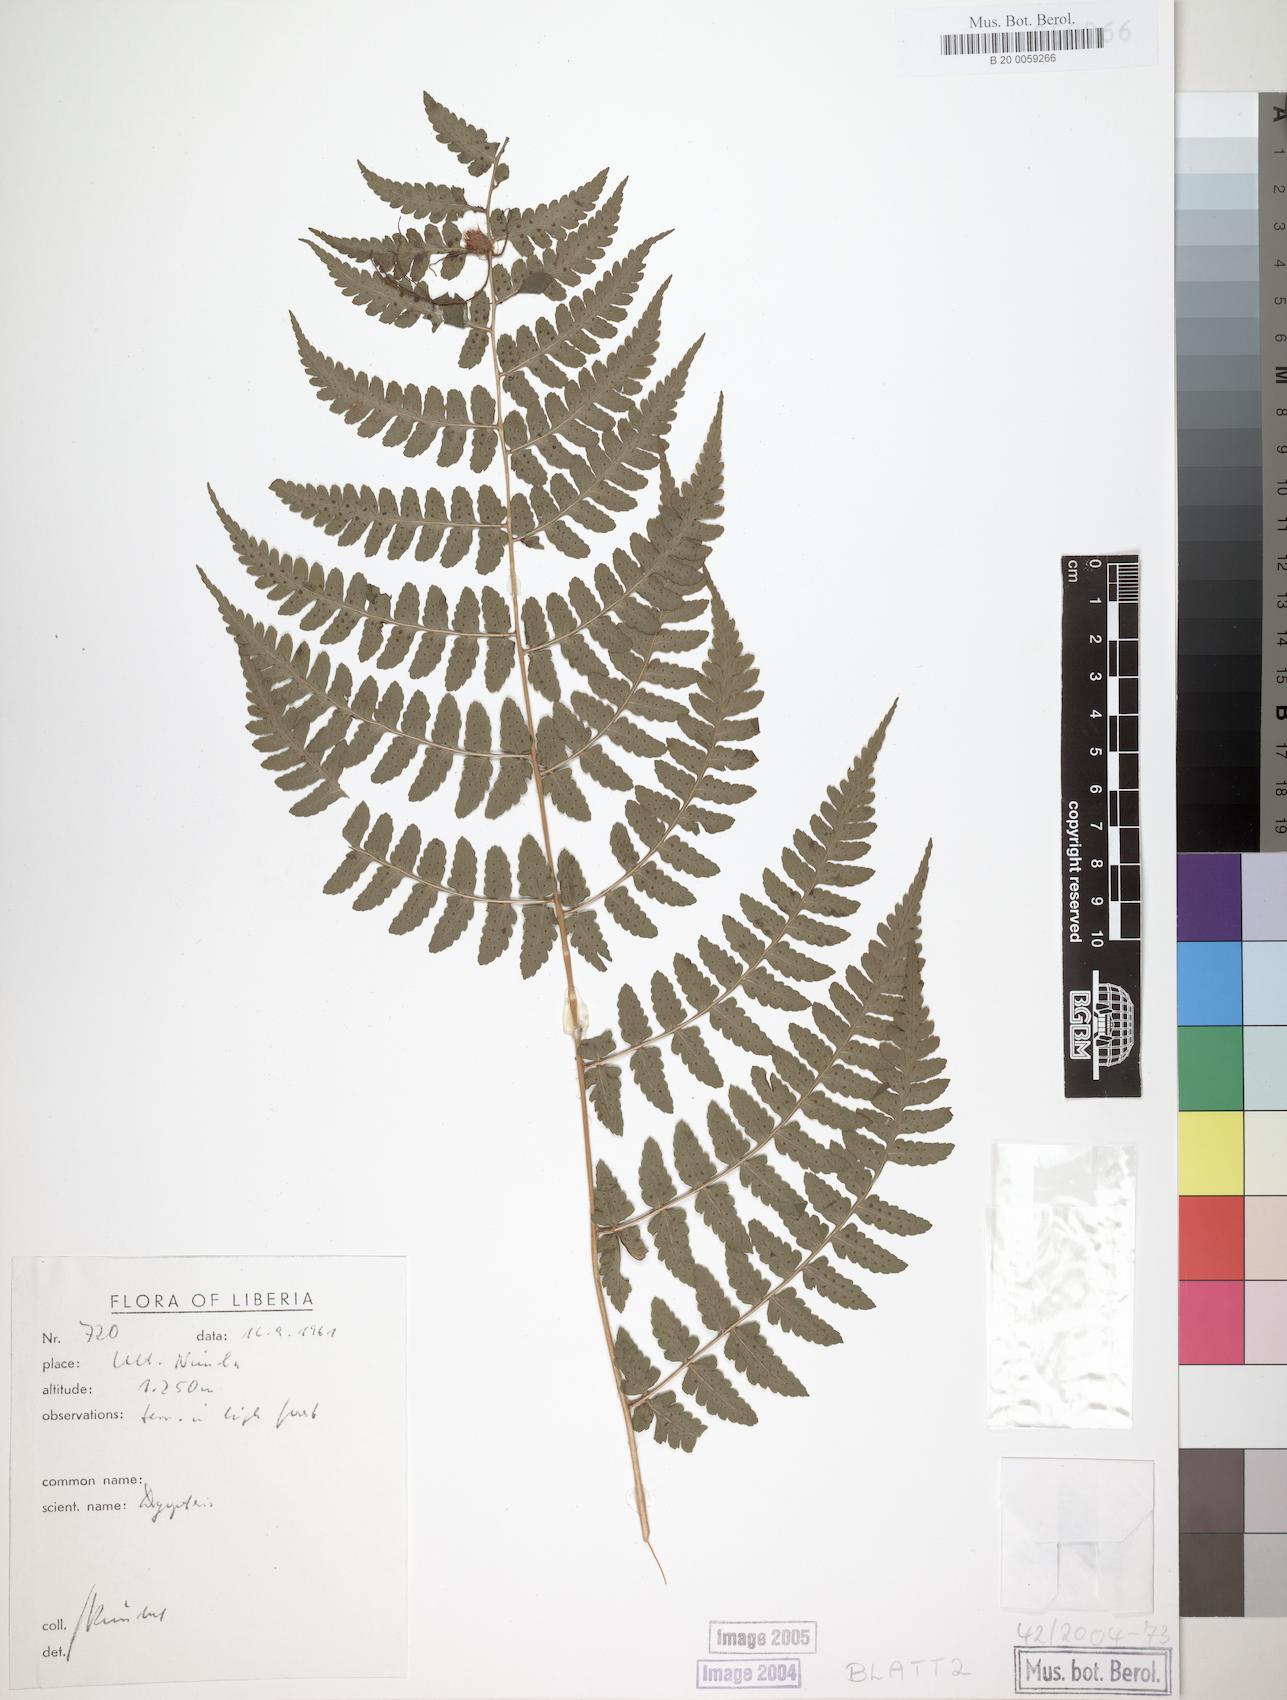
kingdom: Plantae
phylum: Tracheophyta
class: Polypodiopsida
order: Polypodiales
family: Dryopteridaceae
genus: Dryopteris
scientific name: Dryopteris manniana
